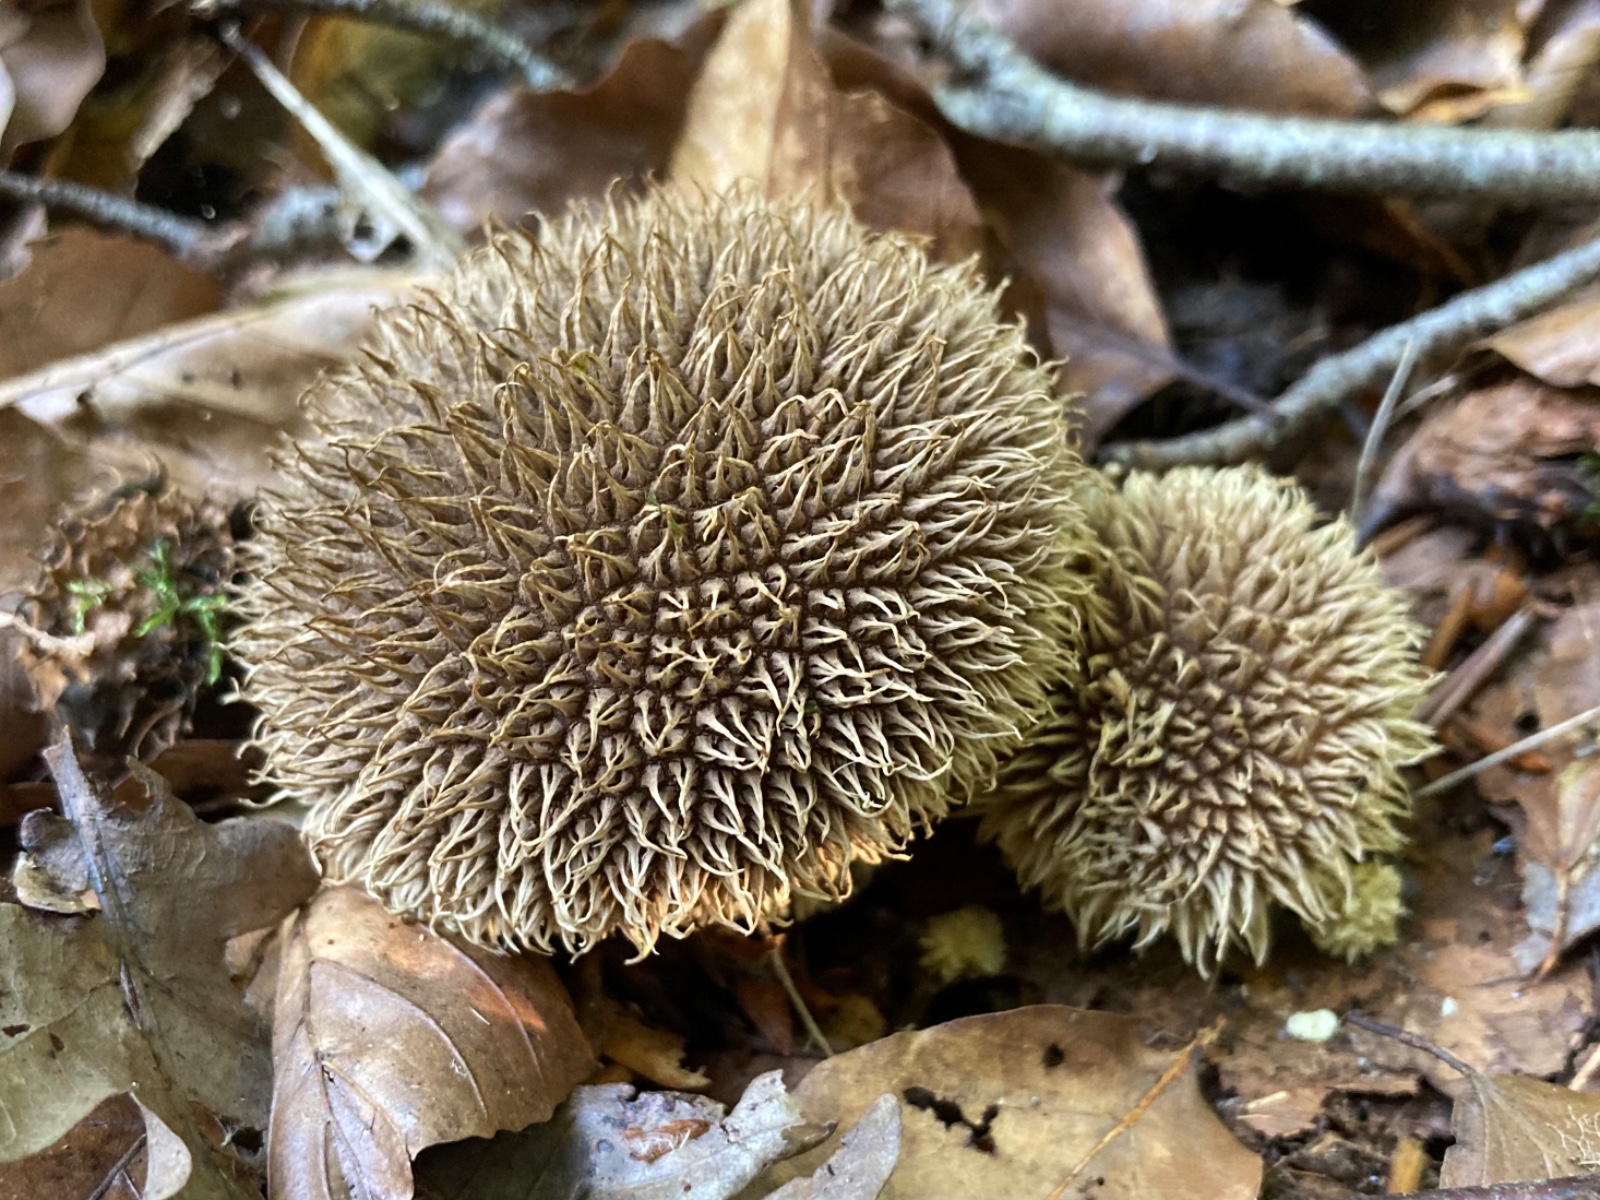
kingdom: Fungi
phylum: Basidiomycota
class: Agaricomycetes
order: Agaricales
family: Lycoperdaceae
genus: Lycoperdon
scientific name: Lycoperdon echinatum
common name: pindsvine-støvbold
